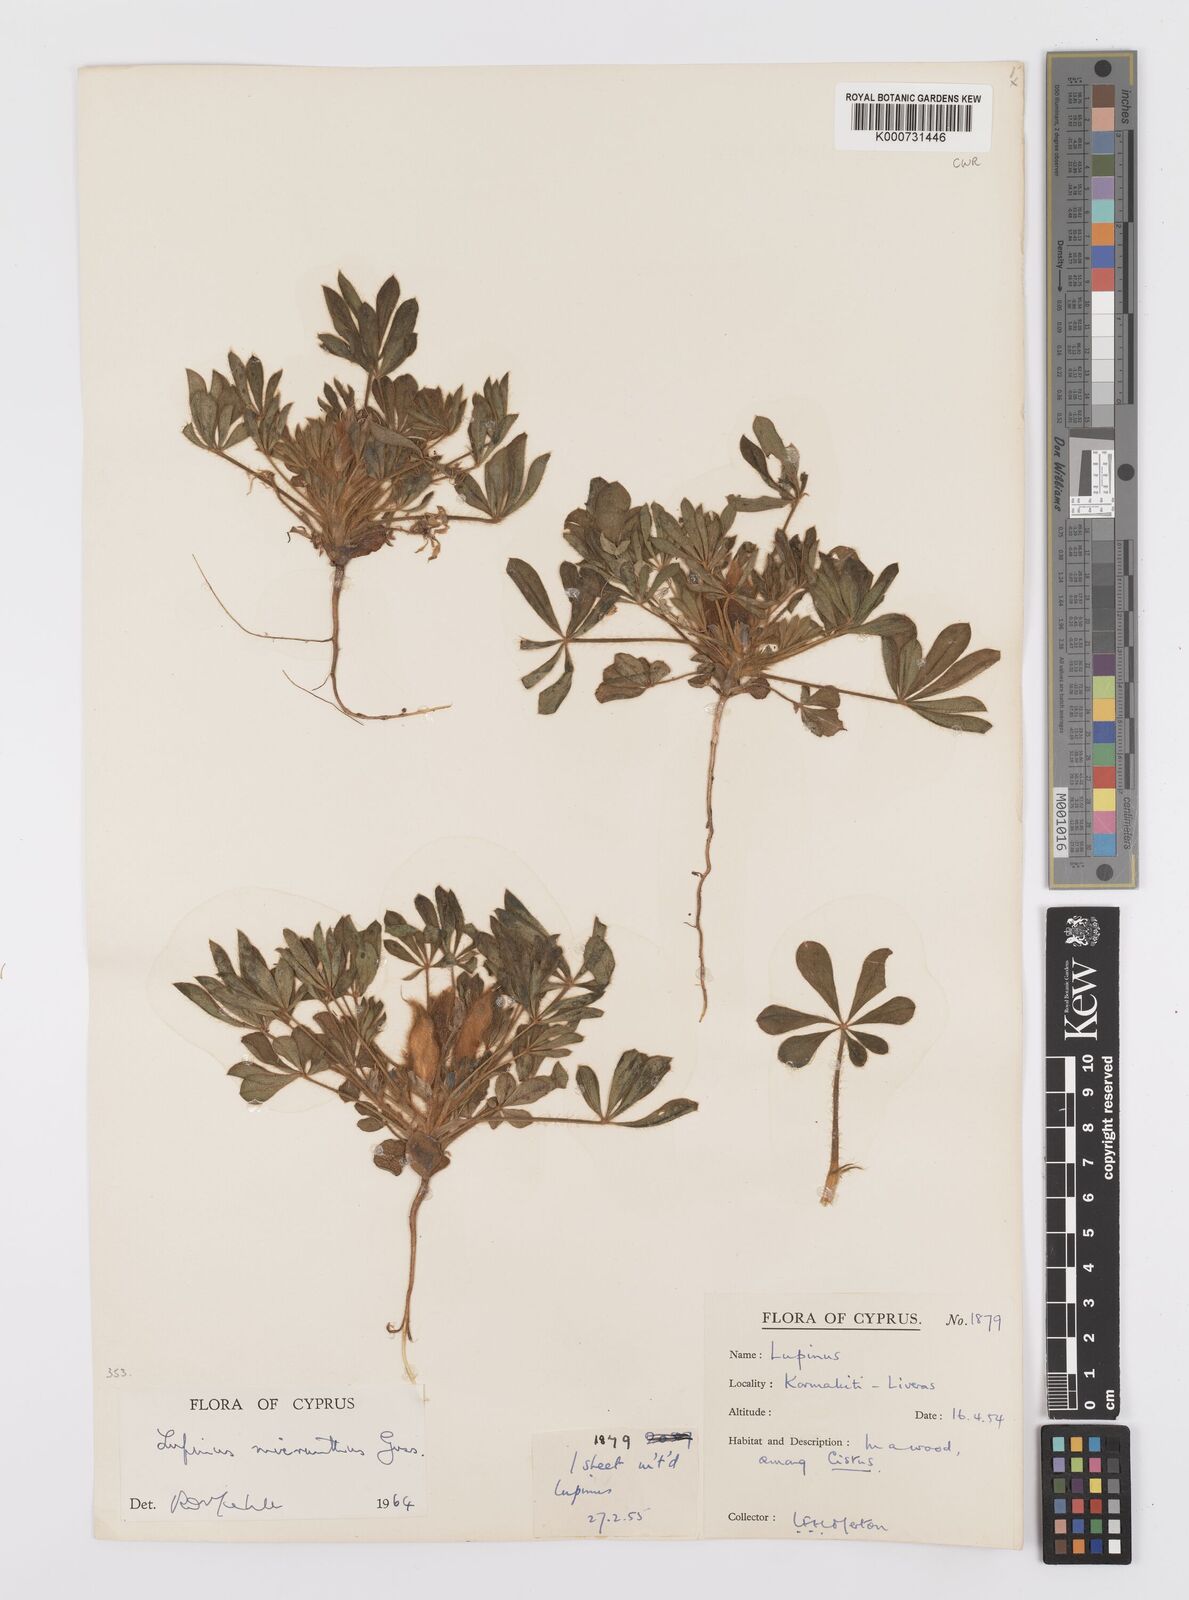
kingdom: Plantae
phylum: Tracheophyta
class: Magnoliopsida
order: Fabales
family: Fabaceae
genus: Lupinus
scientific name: Lupinus gussoneanus
